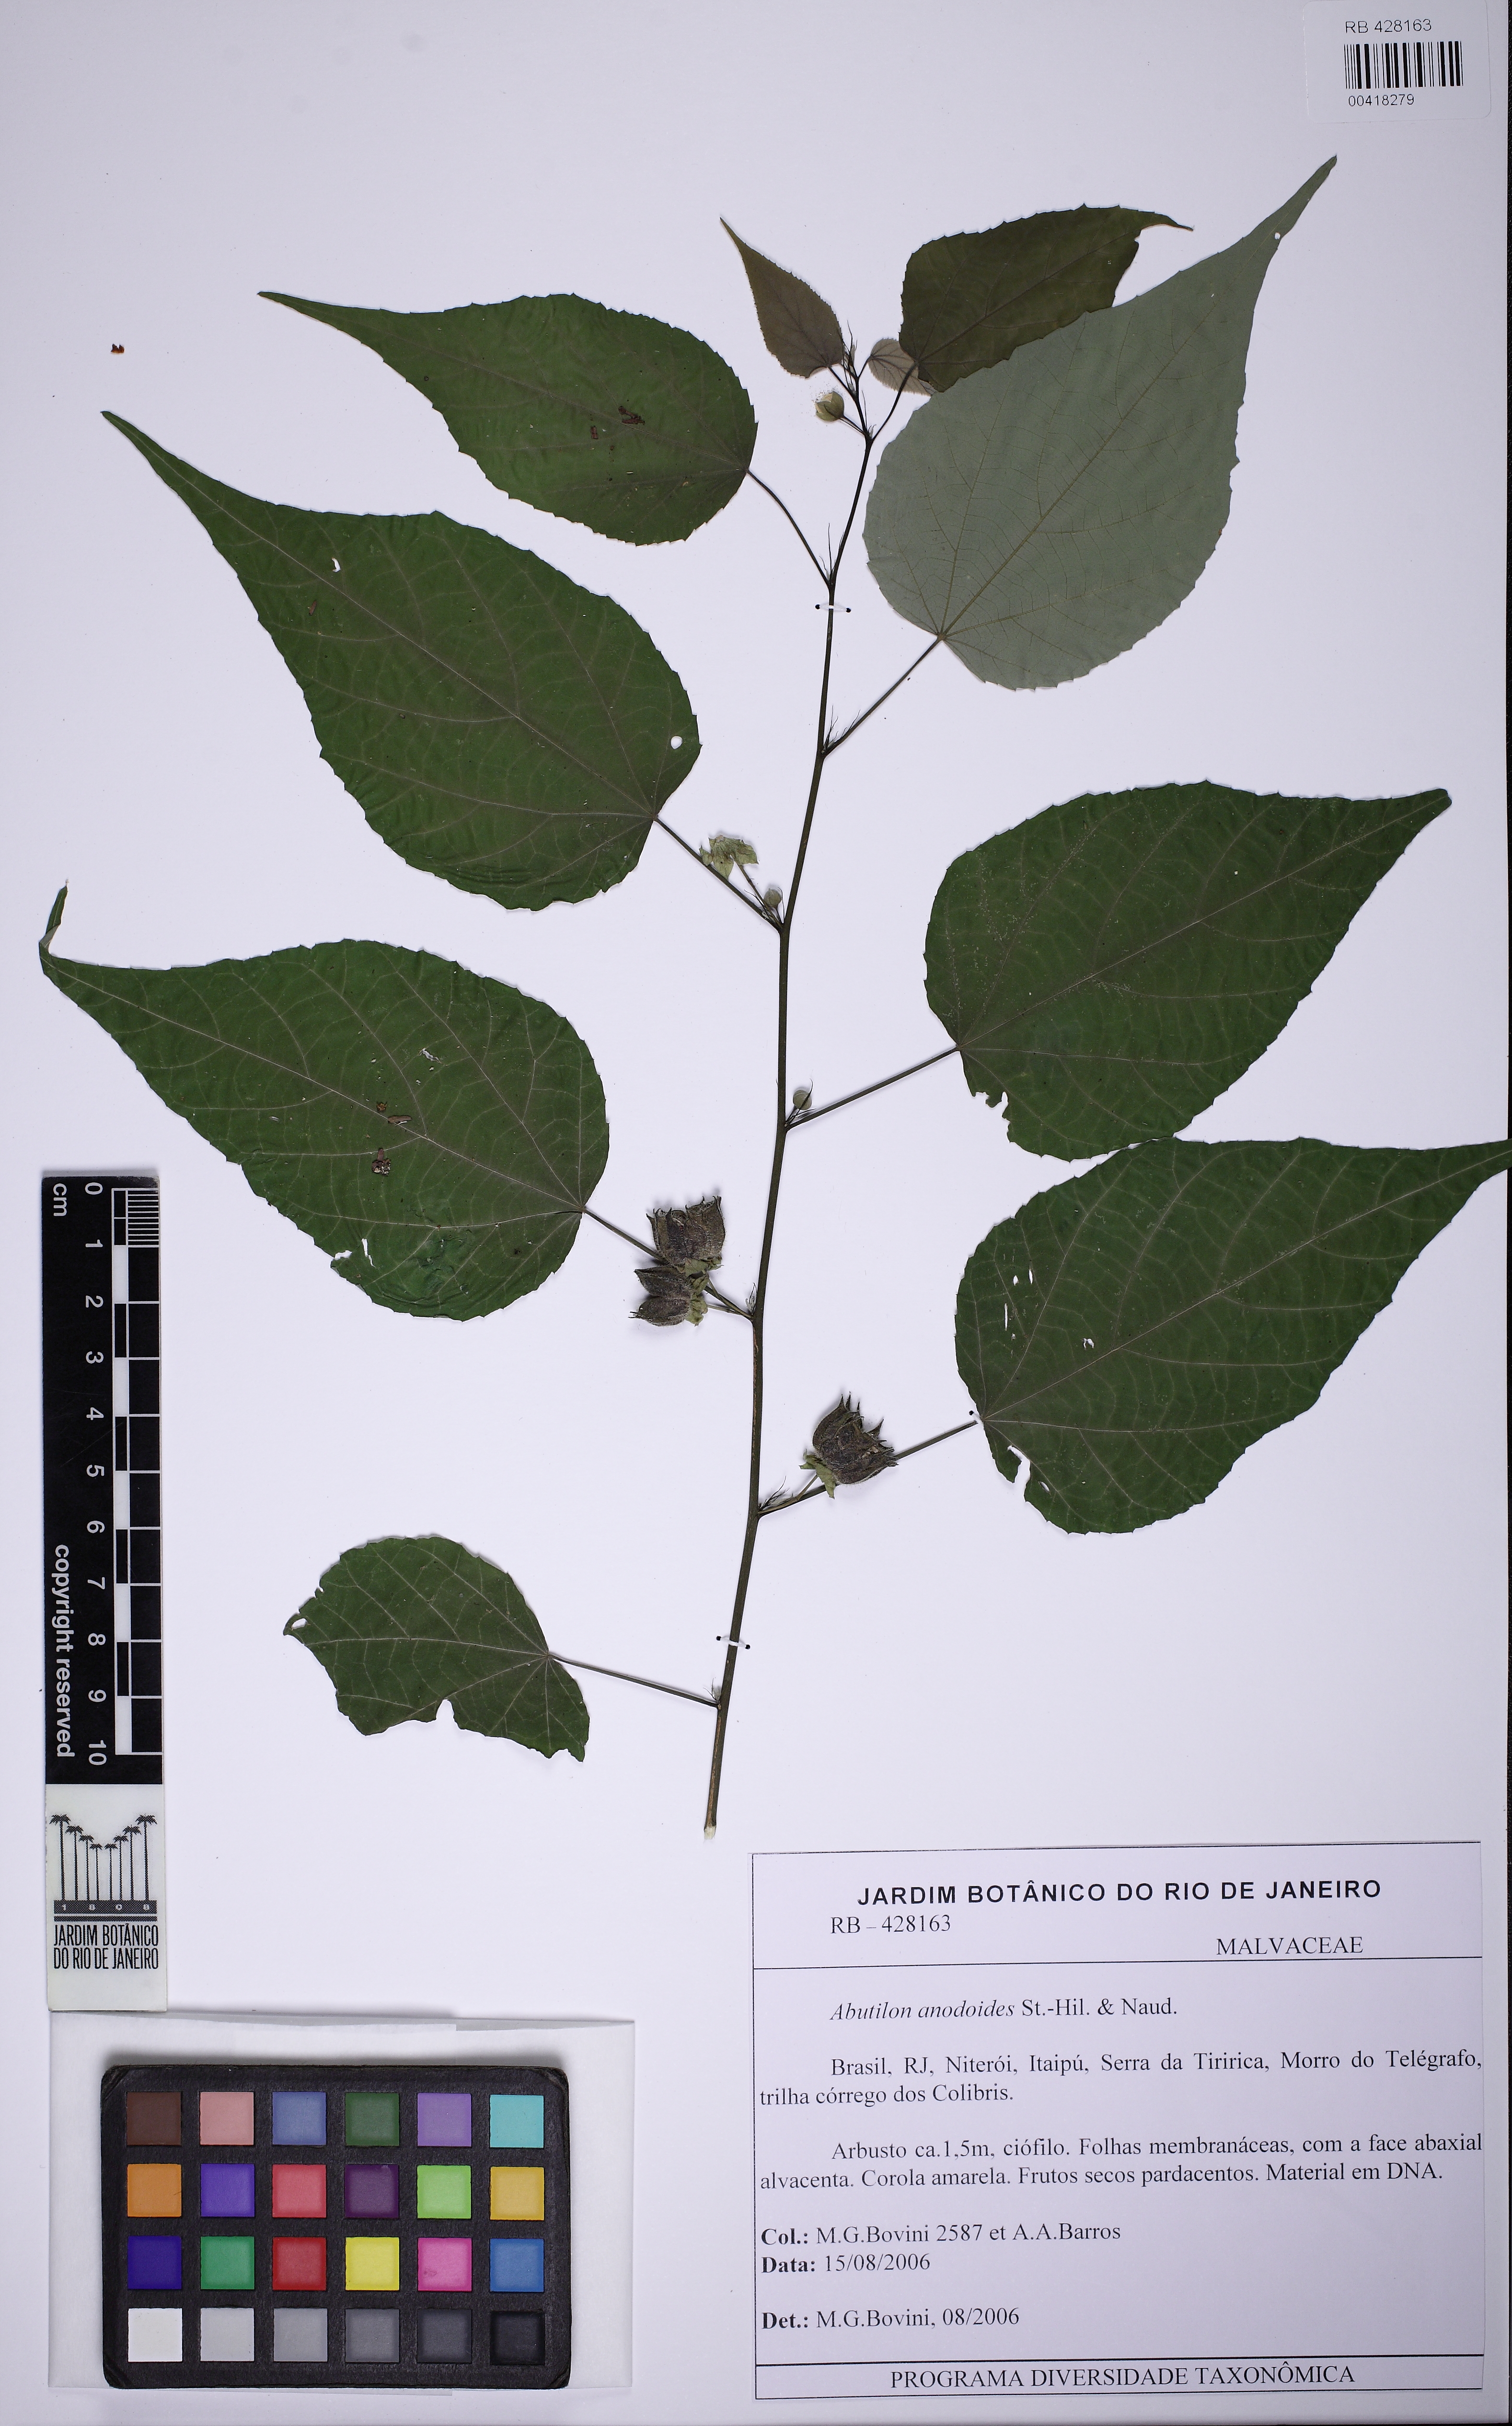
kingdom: Plantae
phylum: Tracheophyta
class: Magnoliopsida
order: Malvales
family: Malvaceae
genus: Abutilon
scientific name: Abutilon anodoides
